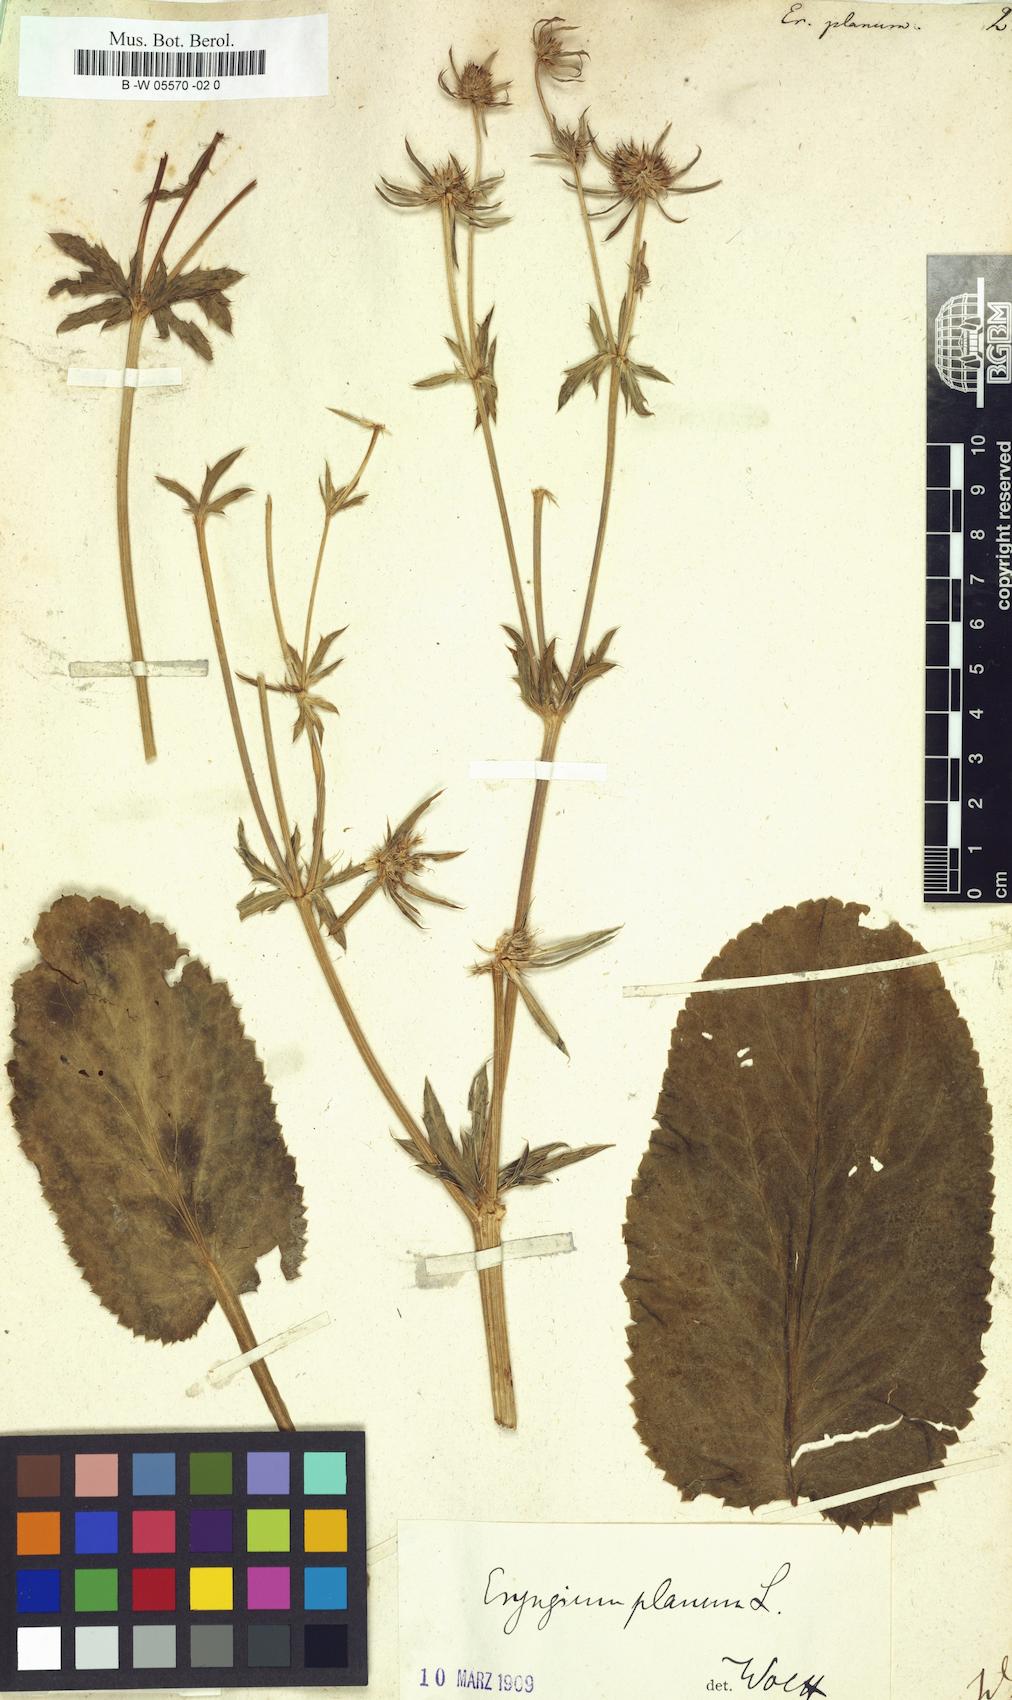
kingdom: Plantae
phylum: Tracheophyta
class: Magnoliopsida
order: Apiales
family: Apiaceae
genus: Eryngium
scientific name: Eryngium planum
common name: Blue eryngo
